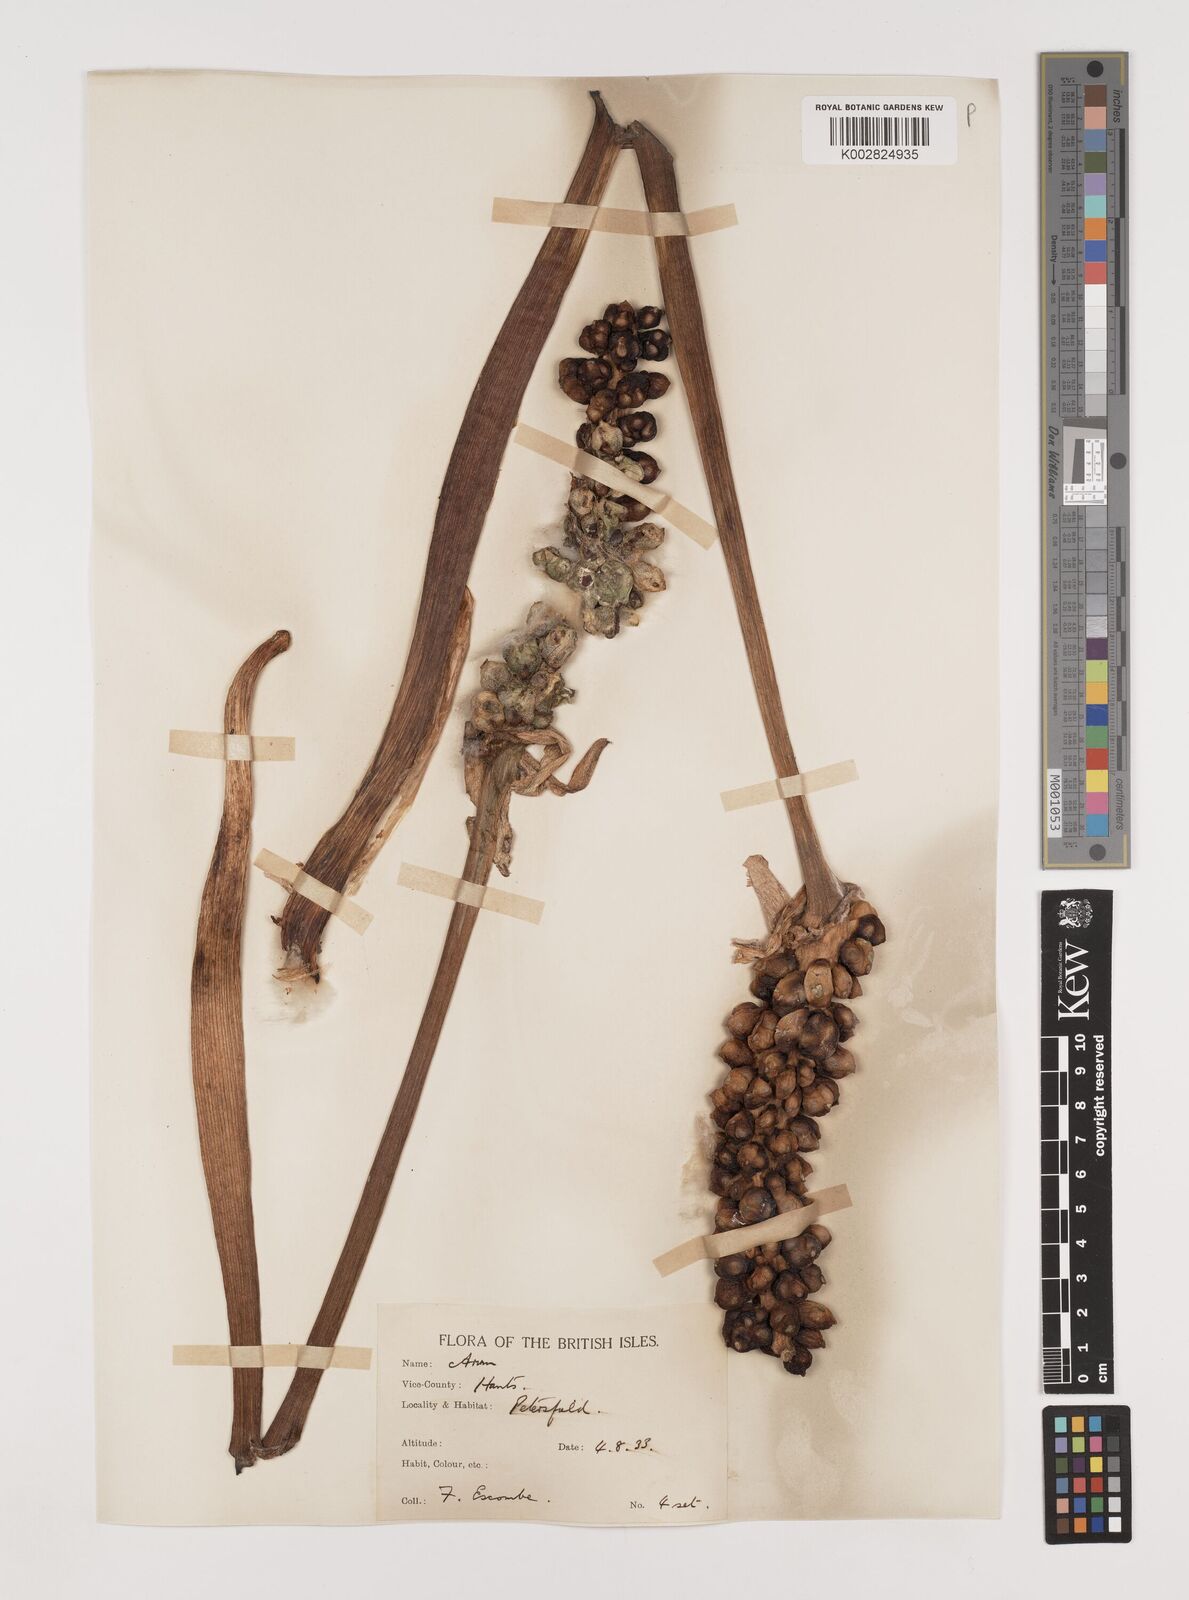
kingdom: Plantae
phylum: Tracheophyta
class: Liliopsida
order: Alismatales
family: Araceae
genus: Arum
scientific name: Arum italicum
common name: Italian lords-and-ladies
